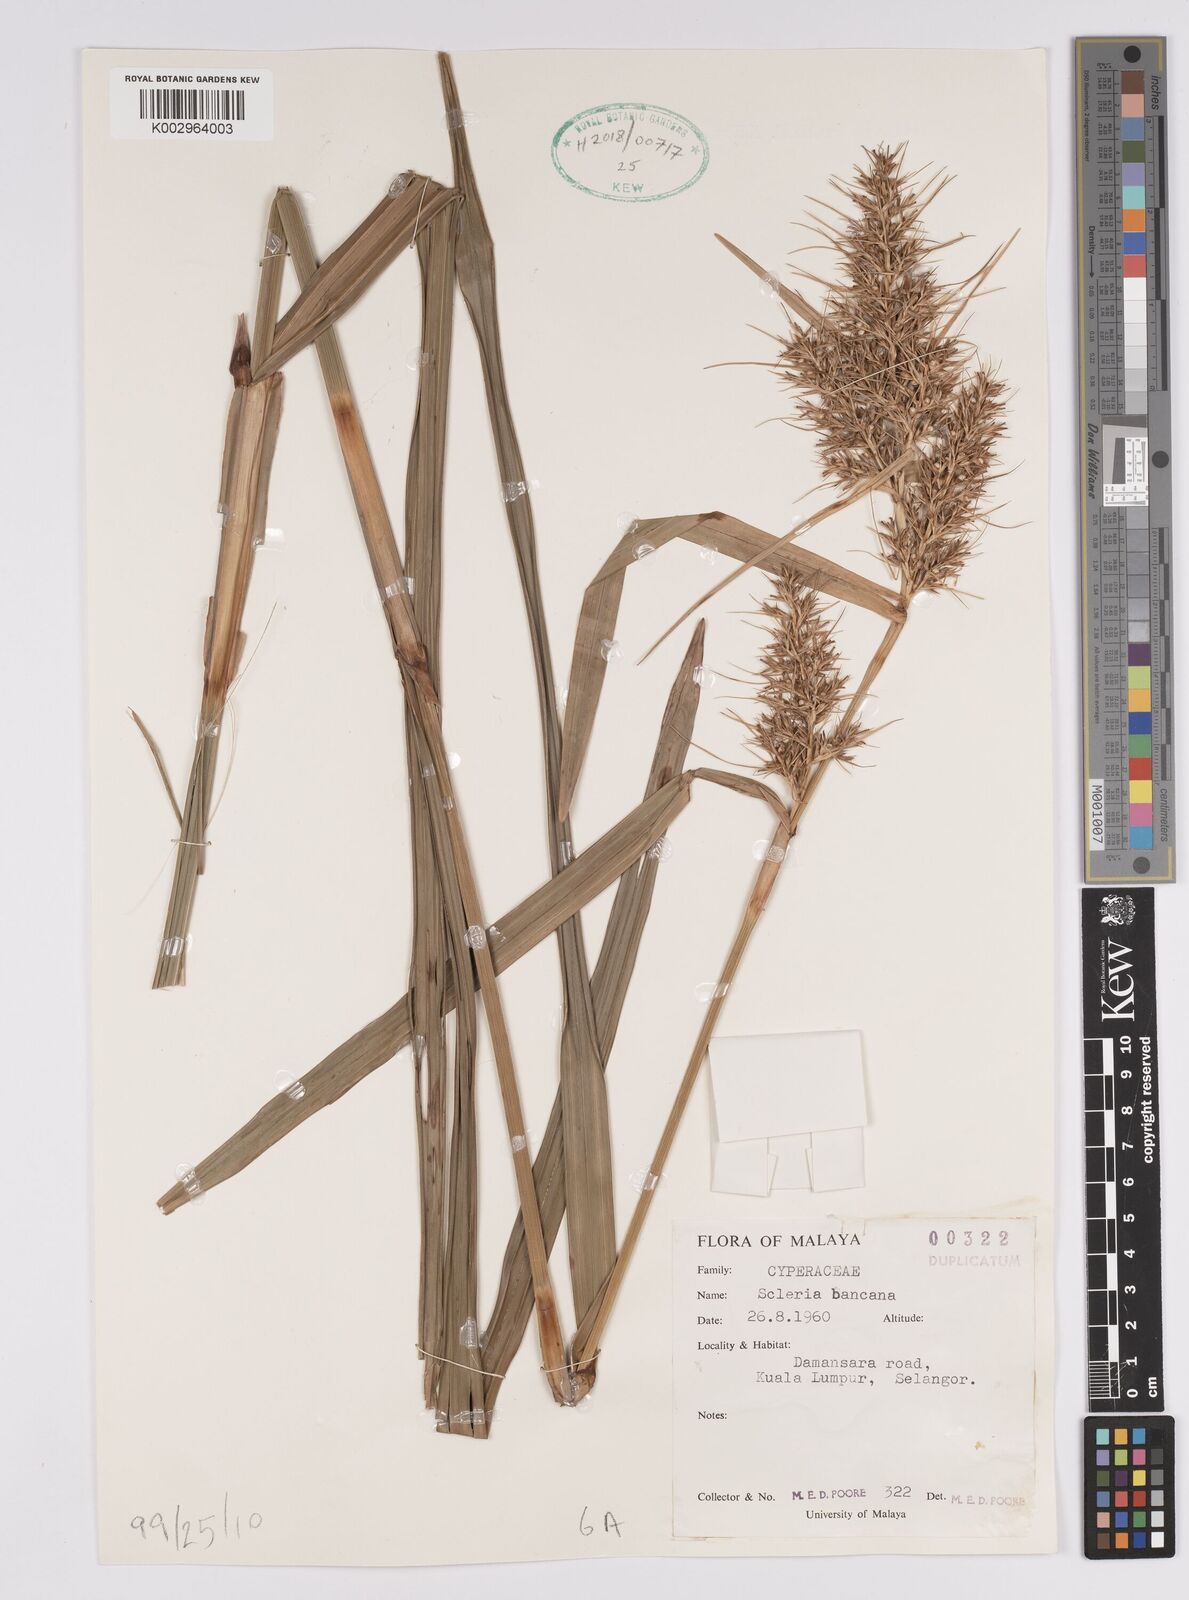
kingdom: Plantae
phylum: Tracheophyta
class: Liliopsida
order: Poales
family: Cyperaceae
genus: Scleria
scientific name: Scleria ciliaris
